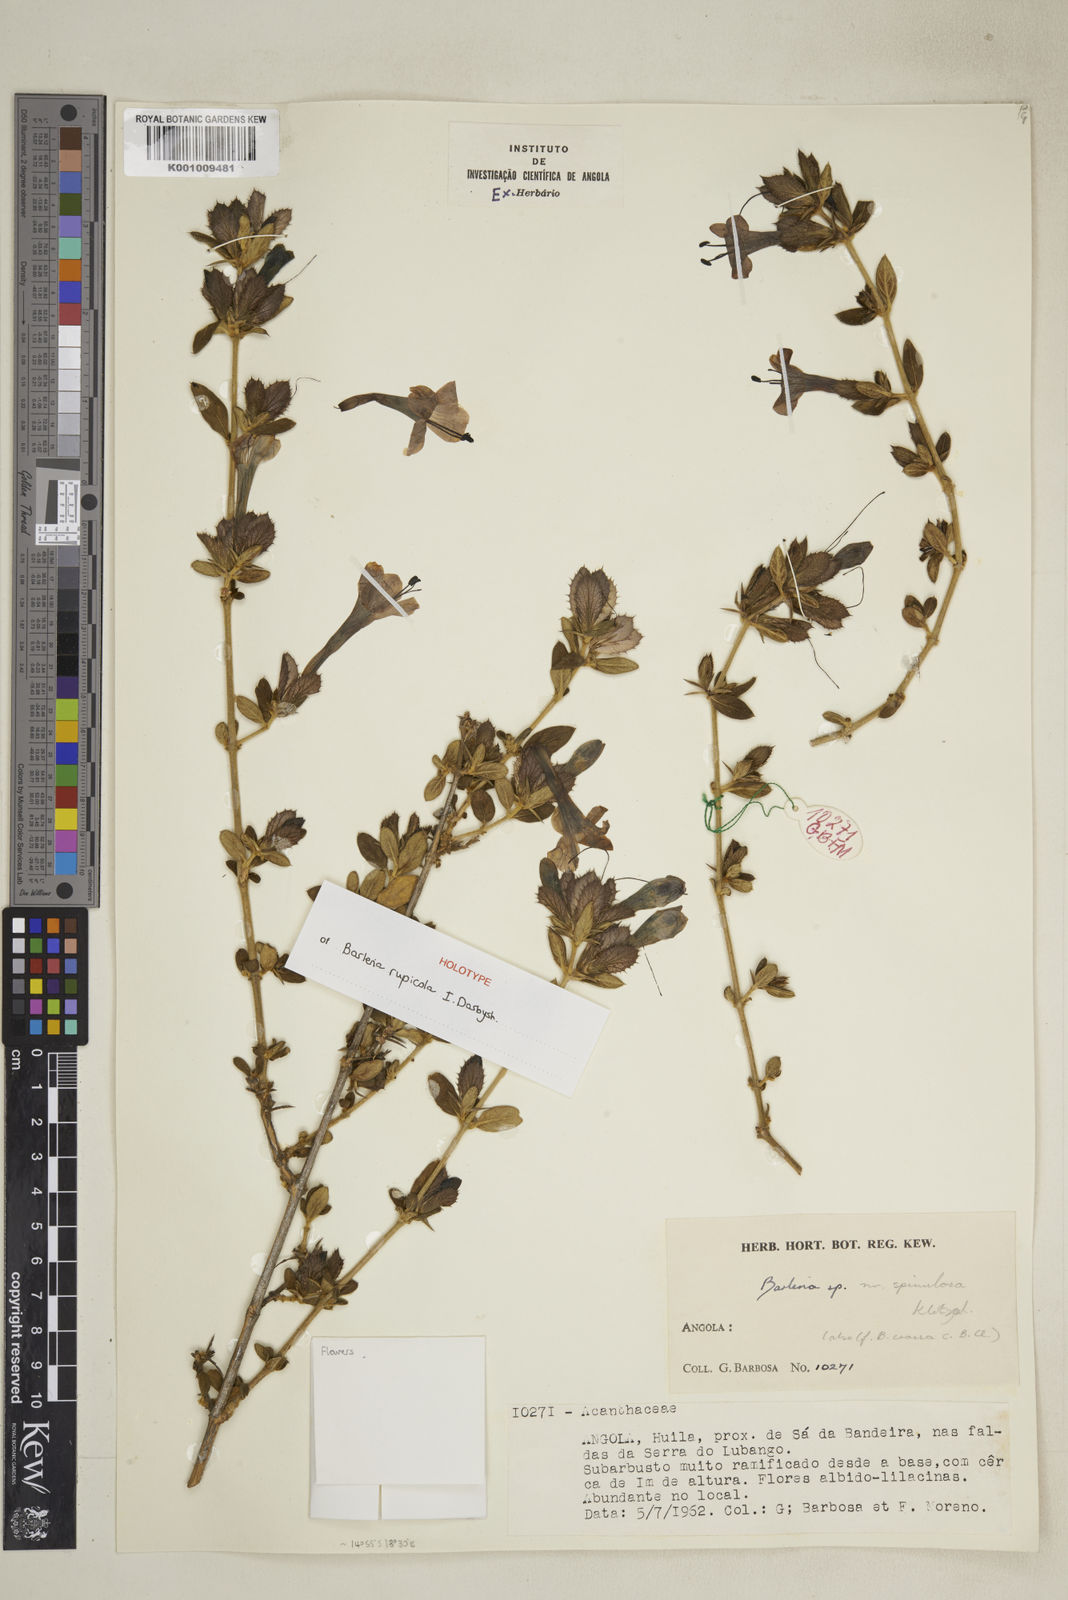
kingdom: Plantae
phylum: Tracheophyta
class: Magnoliopsida
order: Lamiales
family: Acanthaceae
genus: Barleria
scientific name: Barleria
